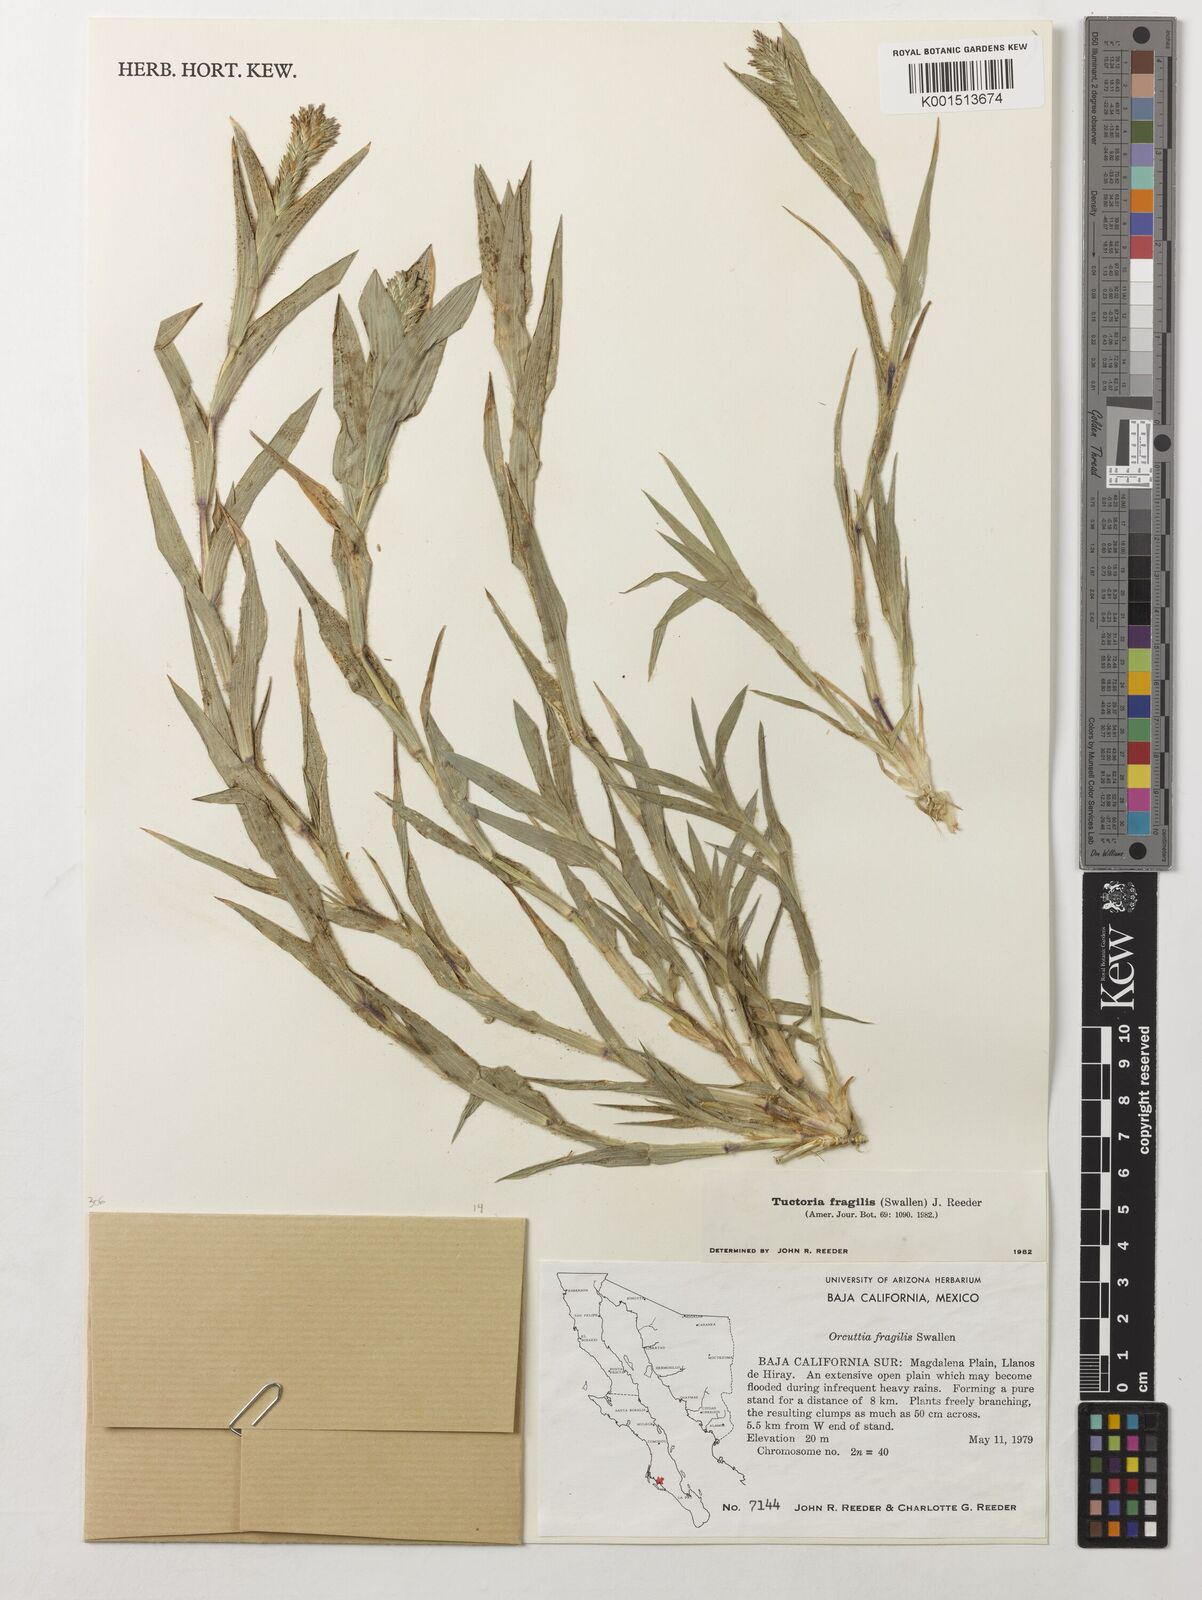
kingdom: Plantae
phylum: Tracheophyta
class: Liliopsida
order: Poales
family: Poaceae
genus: Tuctoria
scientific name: Tuctoria fragilis
